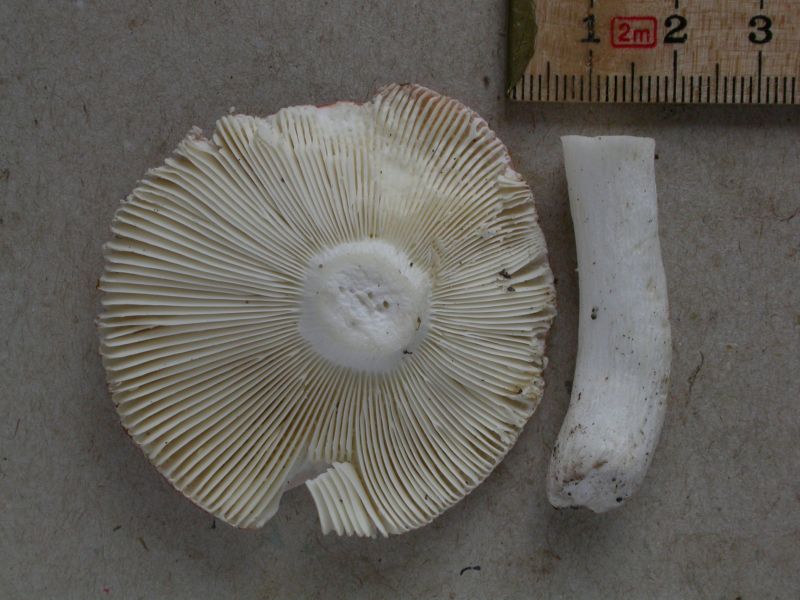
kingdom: Fungi
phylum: Basidiomycota
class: Agaricomycetes
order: Russulales
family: Russulaceae
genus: Russula
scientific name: Russula aurora
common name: rosa skørhat
